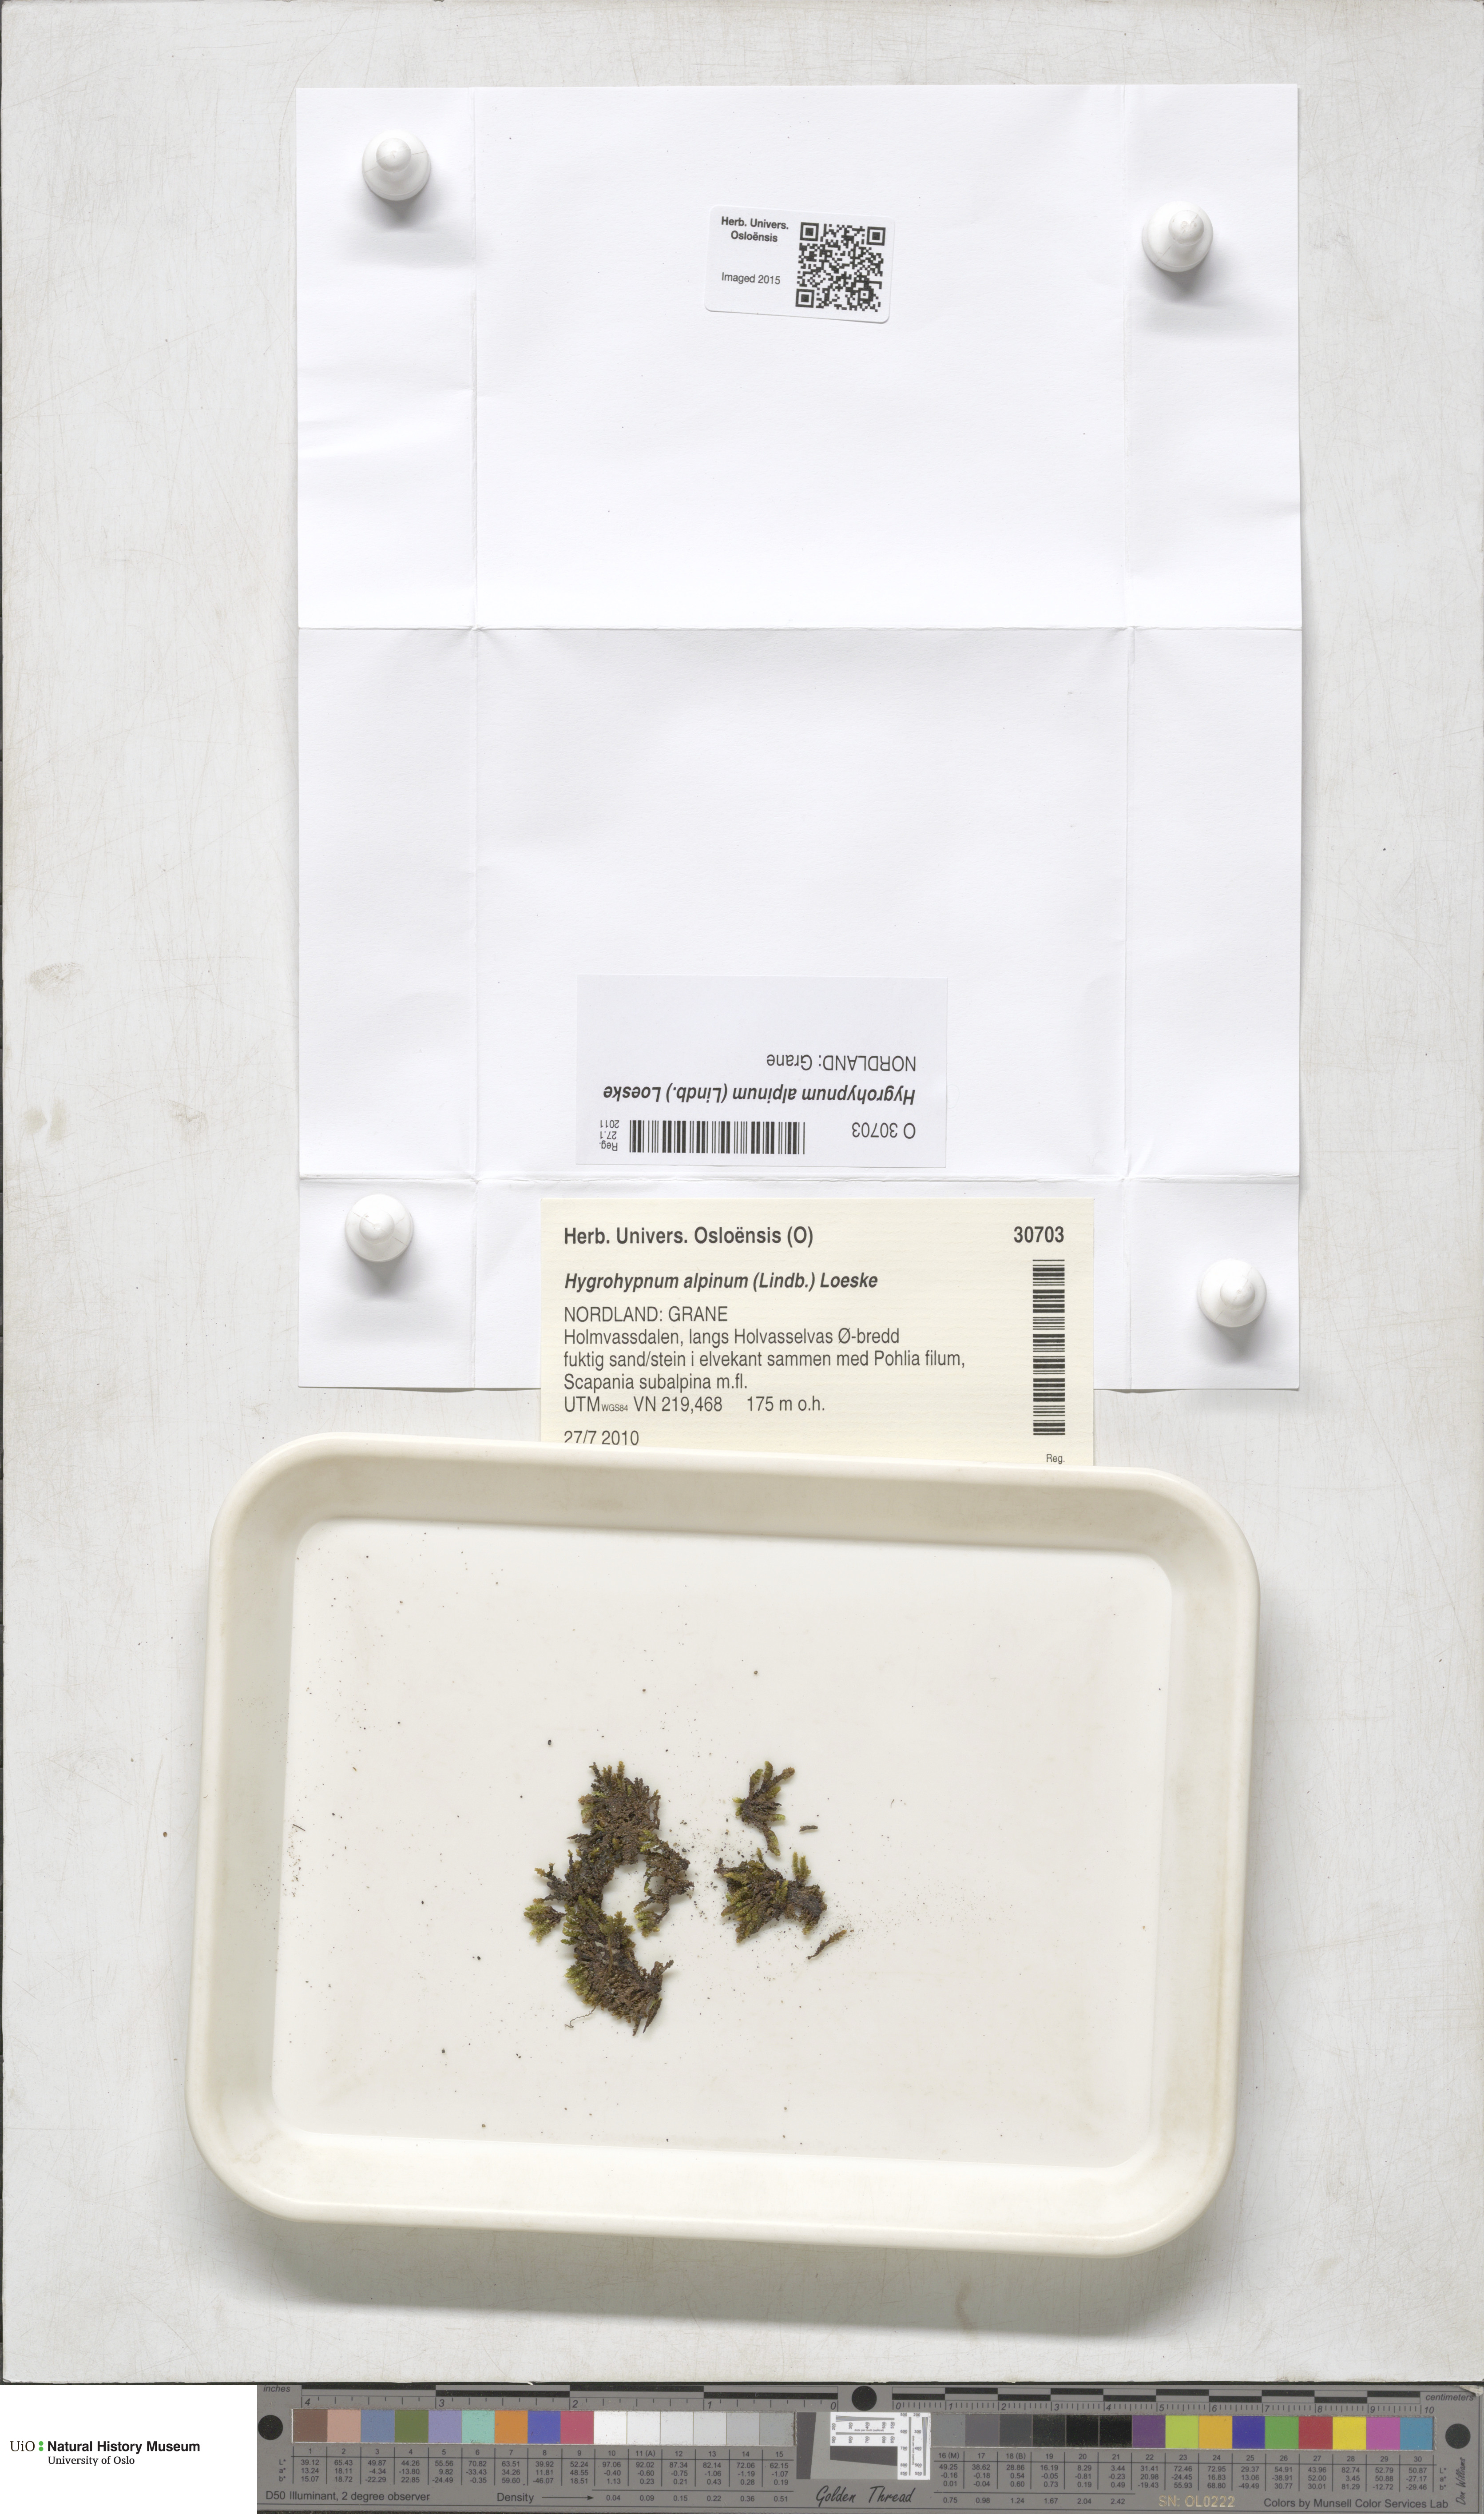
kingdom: Plantae
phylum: Bryophyta
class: Bryopsida
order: Hypnales
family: Amblystegiaceae
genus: Platyhypnum
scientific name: Platyhypnum alpinum
